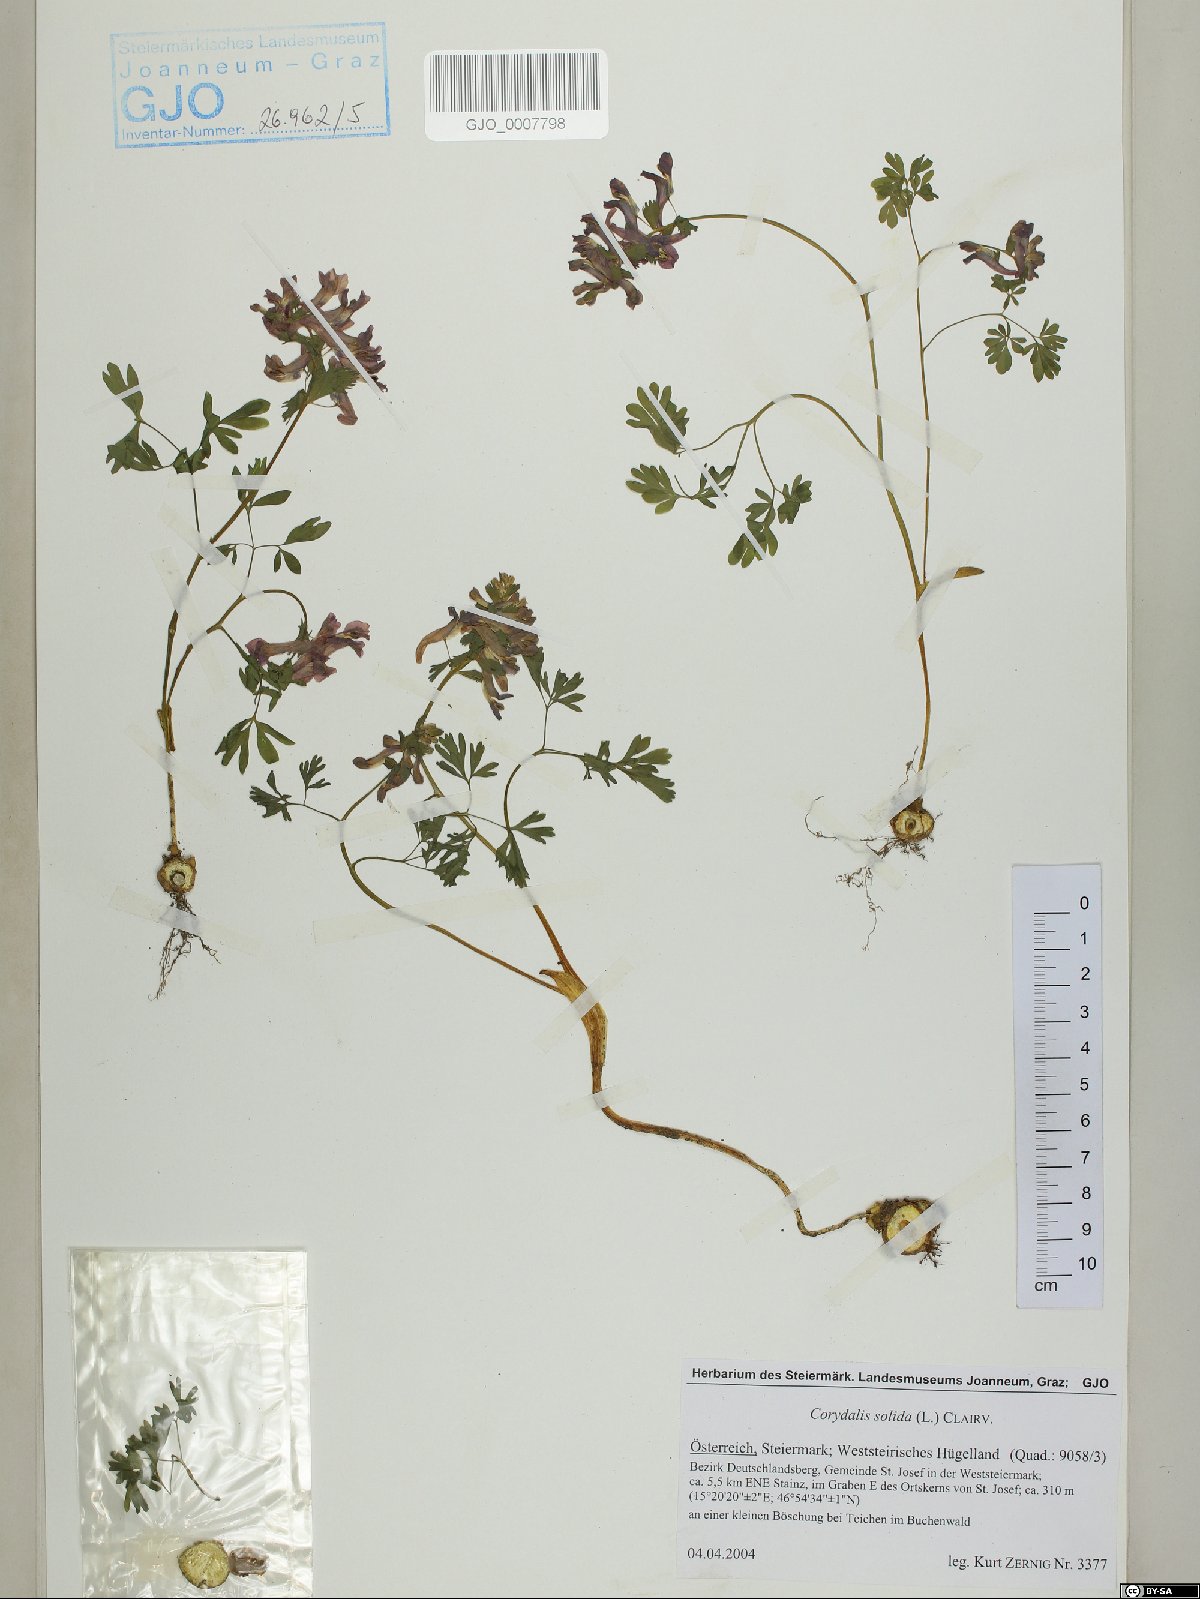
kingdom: Plantae
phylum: Tracheophyta
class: Magnoliopsida
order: Ranunculales
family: Papaveraceae
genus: Corydalis
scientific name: Corydalis solida
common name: Bird-in-a-bush
